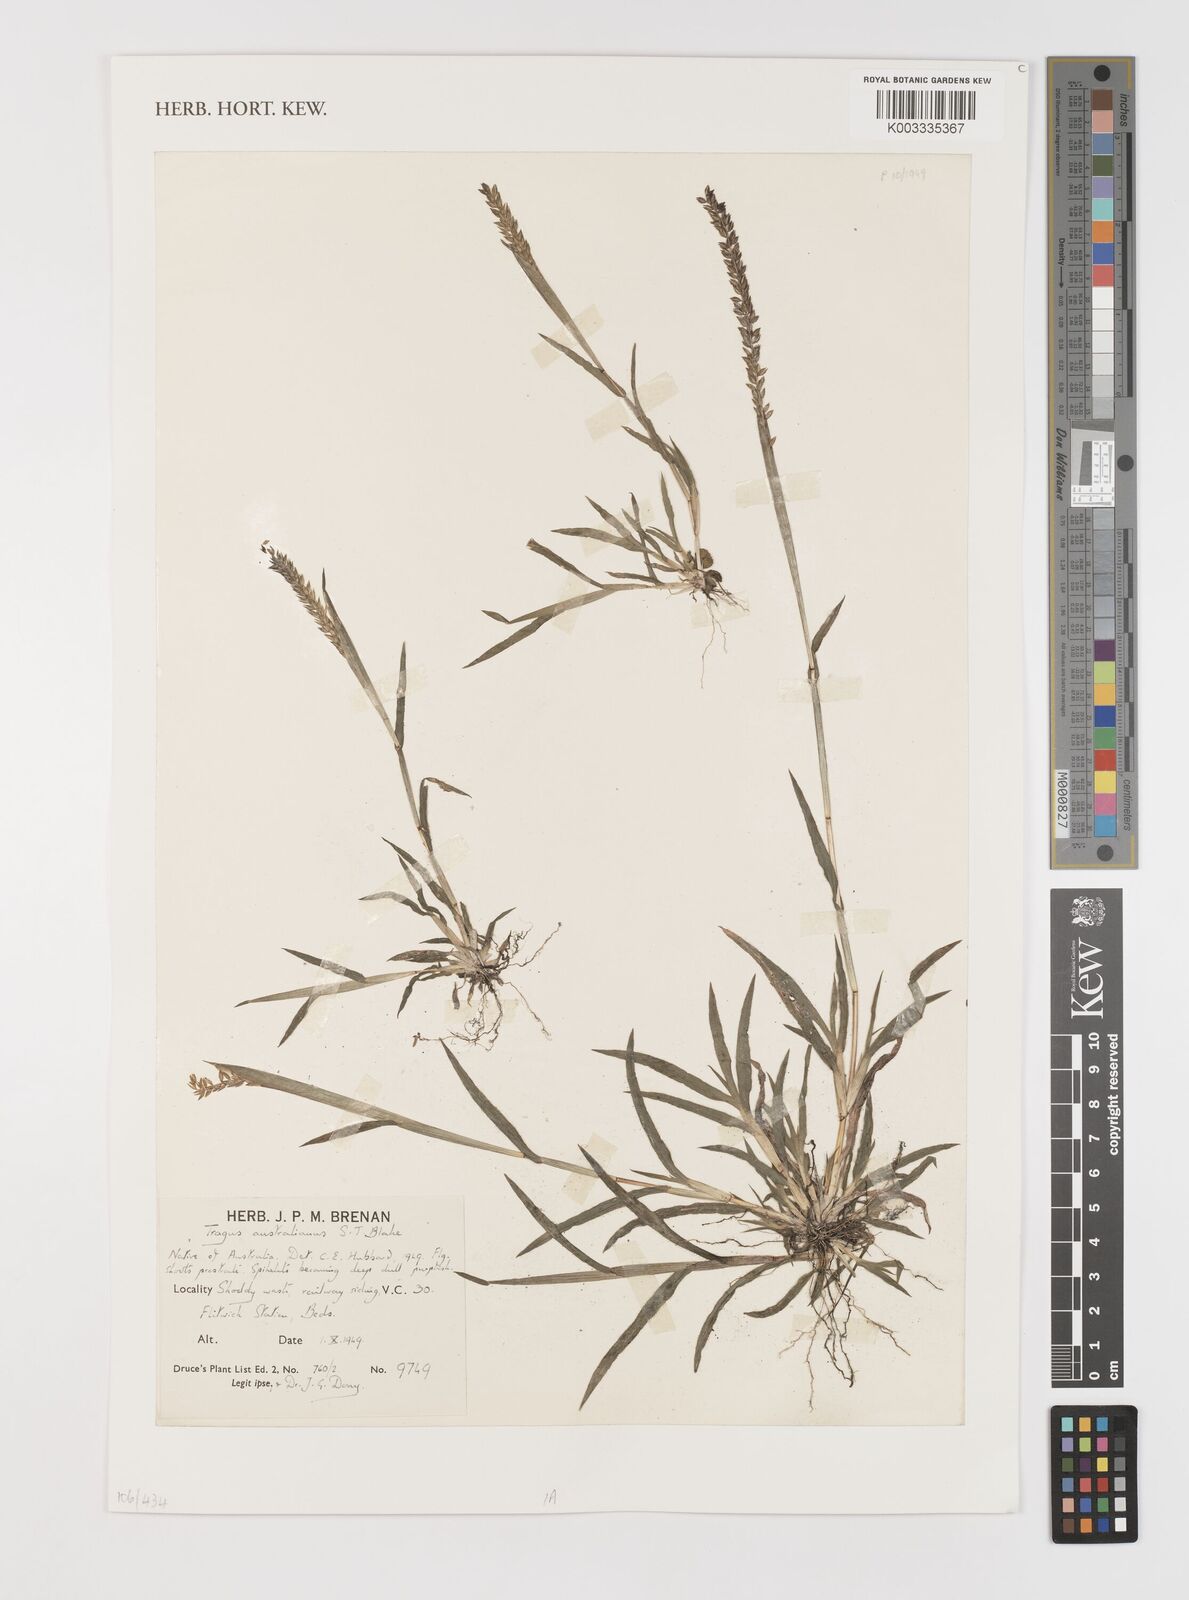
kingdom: Plantae
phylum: Tracheophyta
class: Liliopsida
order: Poales
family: Poaceae
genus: Tragus
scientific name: Tragus australianus
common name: Australian bur-grass
